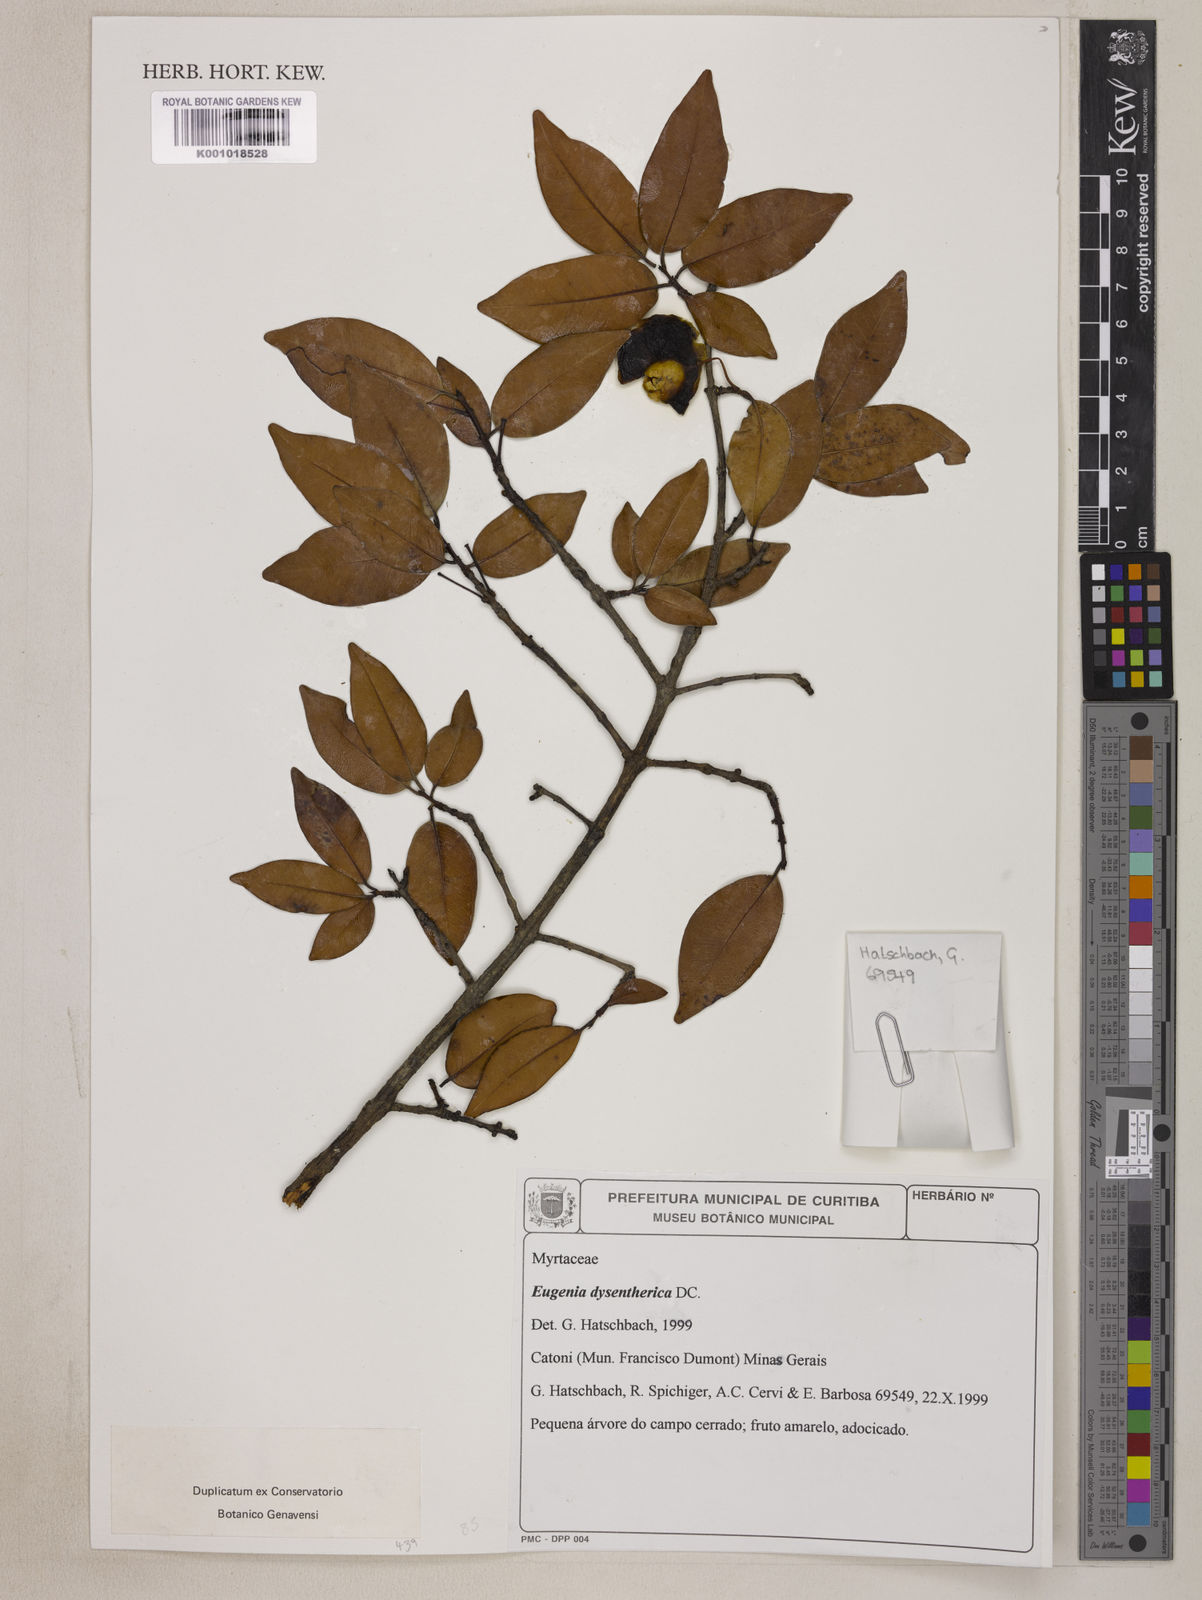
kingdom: Plantae
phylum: Tracheophyta
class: Magnoliopsida
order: Myrtales
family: Myrtaceae
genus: Eugenia
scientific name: Eugenia dysenterica
